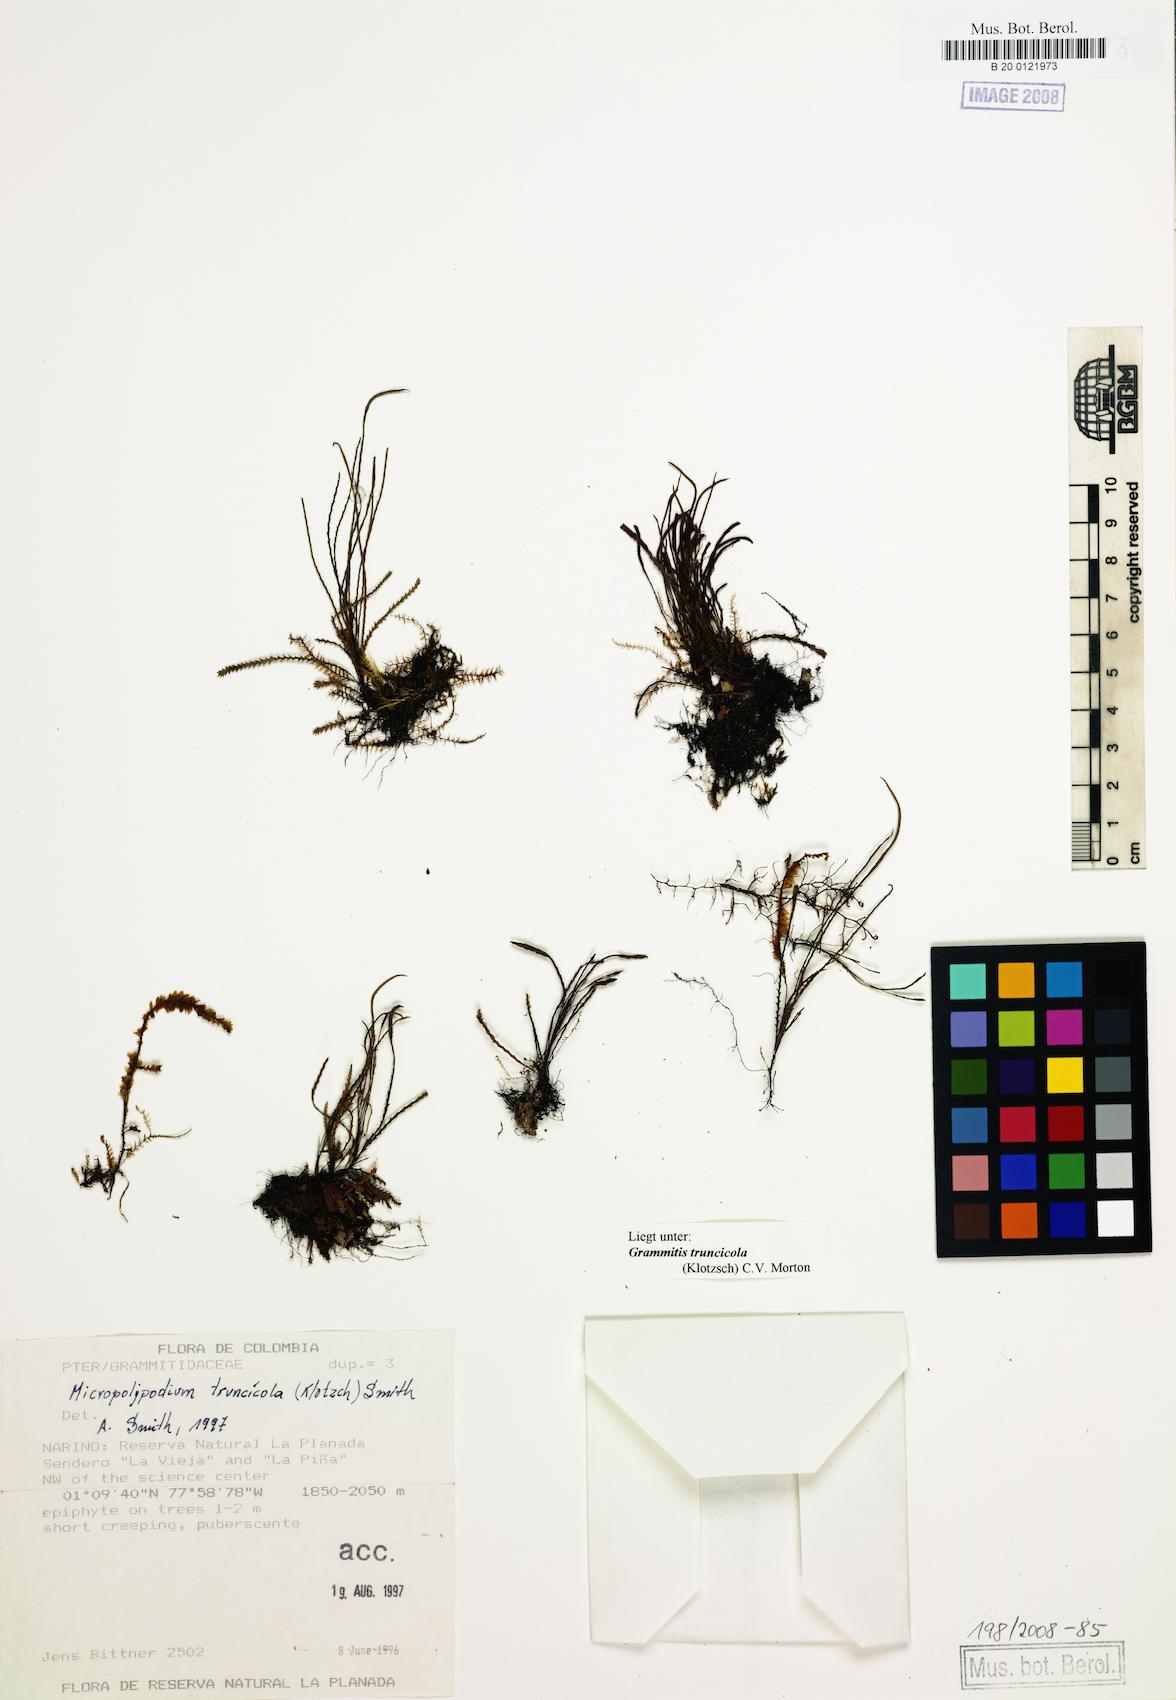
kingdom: Plantae
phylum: Tracheophyta
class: Polypodiopsida
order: Polypodiales
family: Polypodiaceae
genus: Cochlidium
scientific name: Cochlidium
